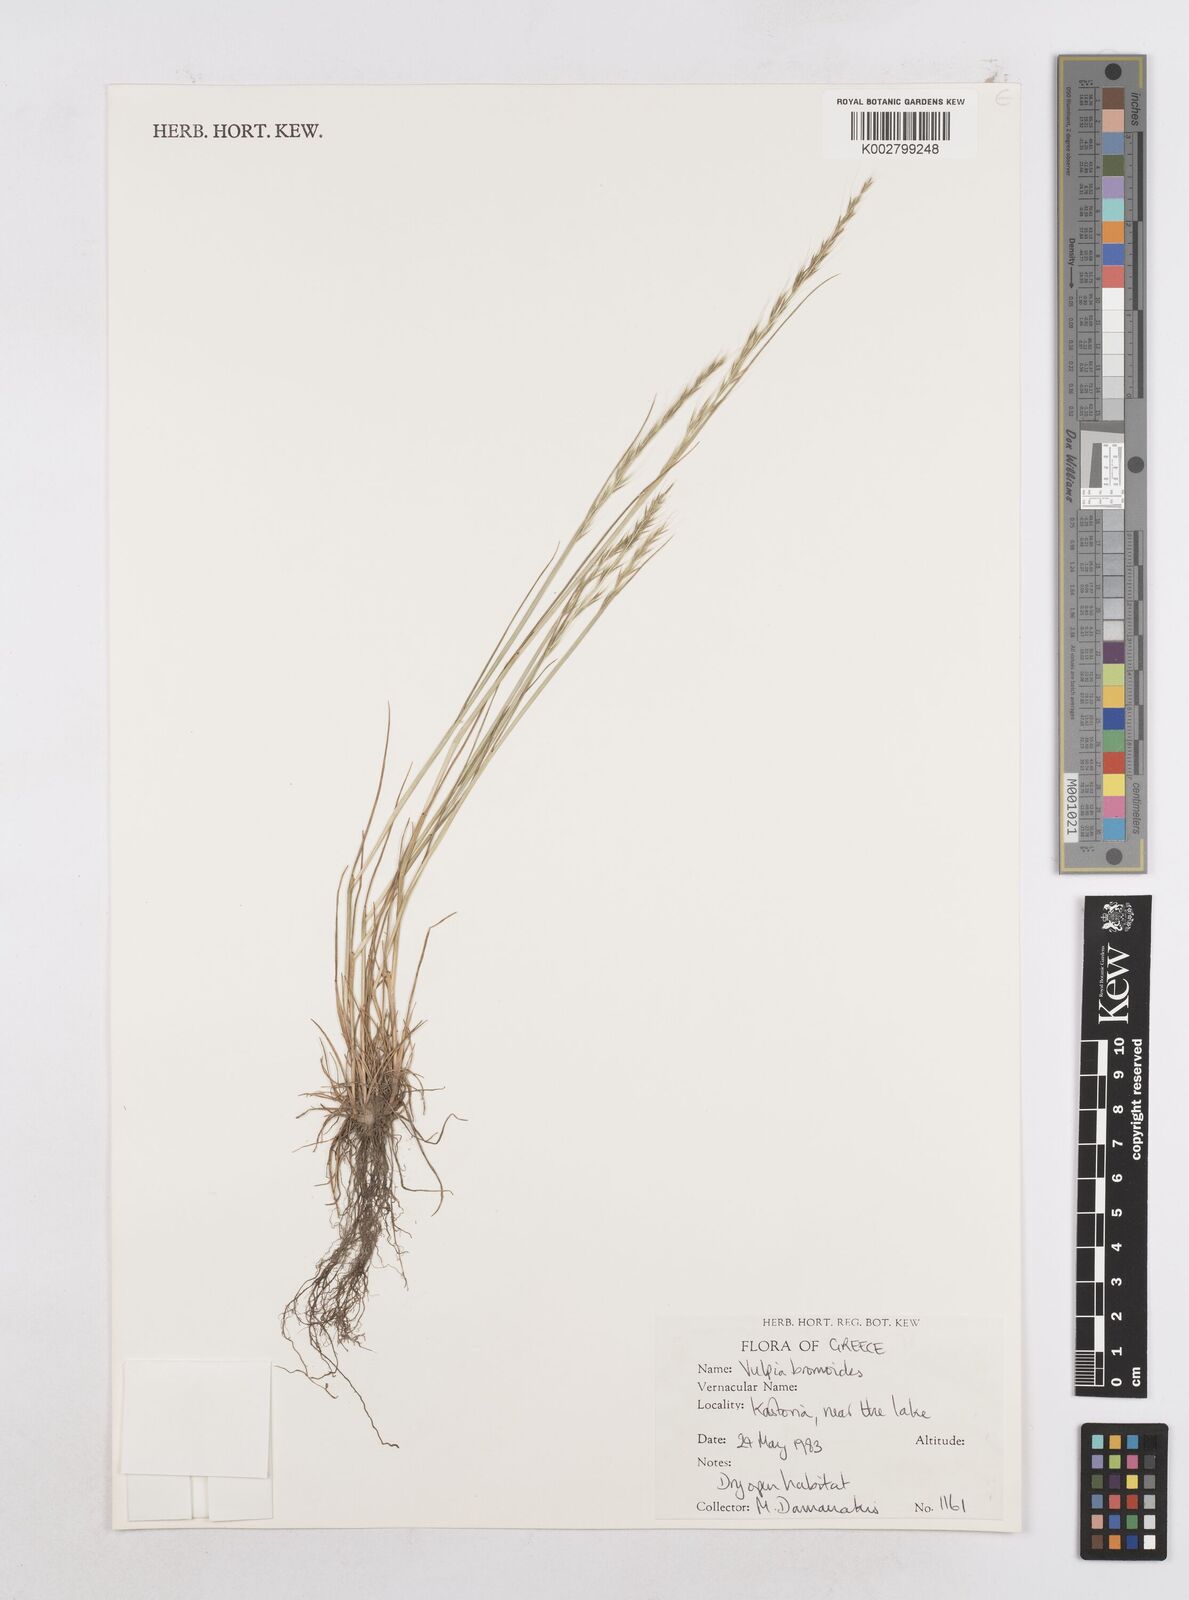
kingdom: Plantae
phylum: Tracheophyta
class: Liliopsida
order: Poales
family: Poaceae
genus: Festuca
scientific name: Festuca bromoides
